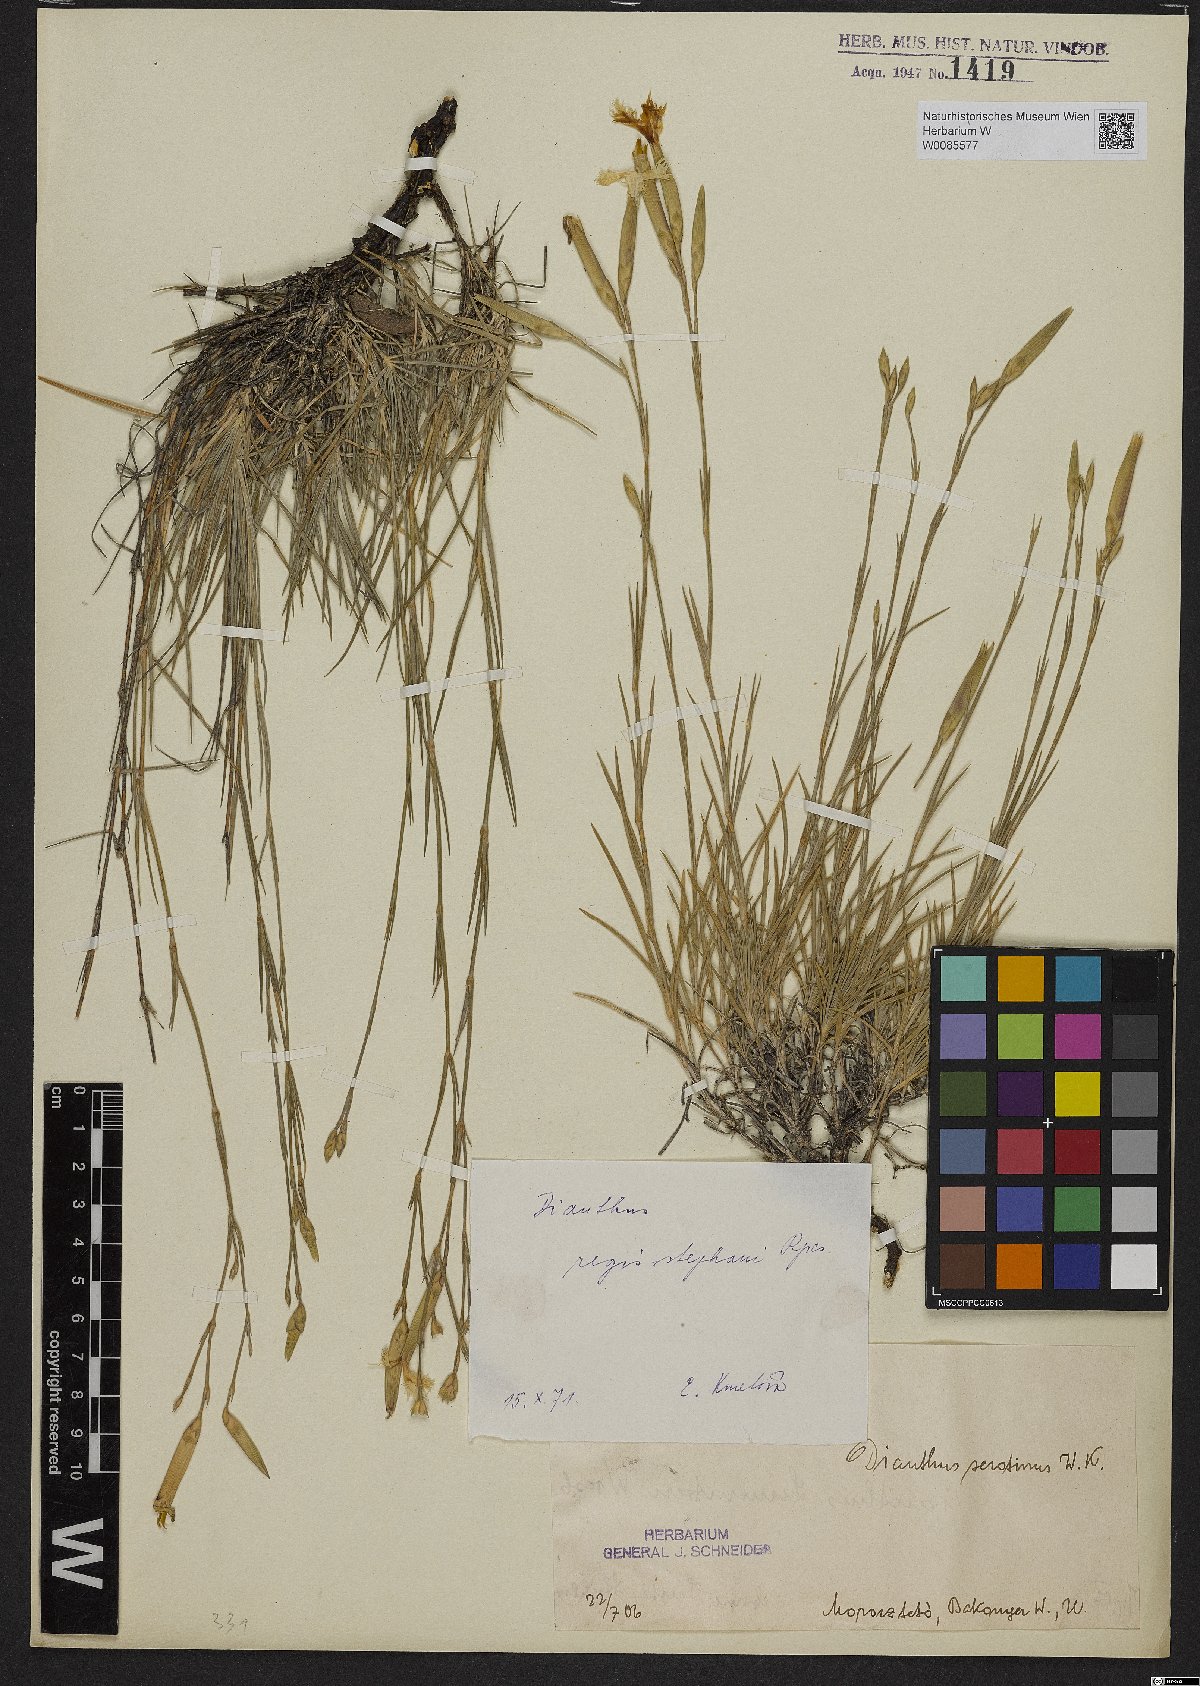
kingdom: Plantae
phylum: Tracheophyta
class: Magnoliopsida
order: Caryophyllales
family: Caryophyllaceae
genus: Dianthus
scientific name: Dianthus plumarius
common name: Pink
